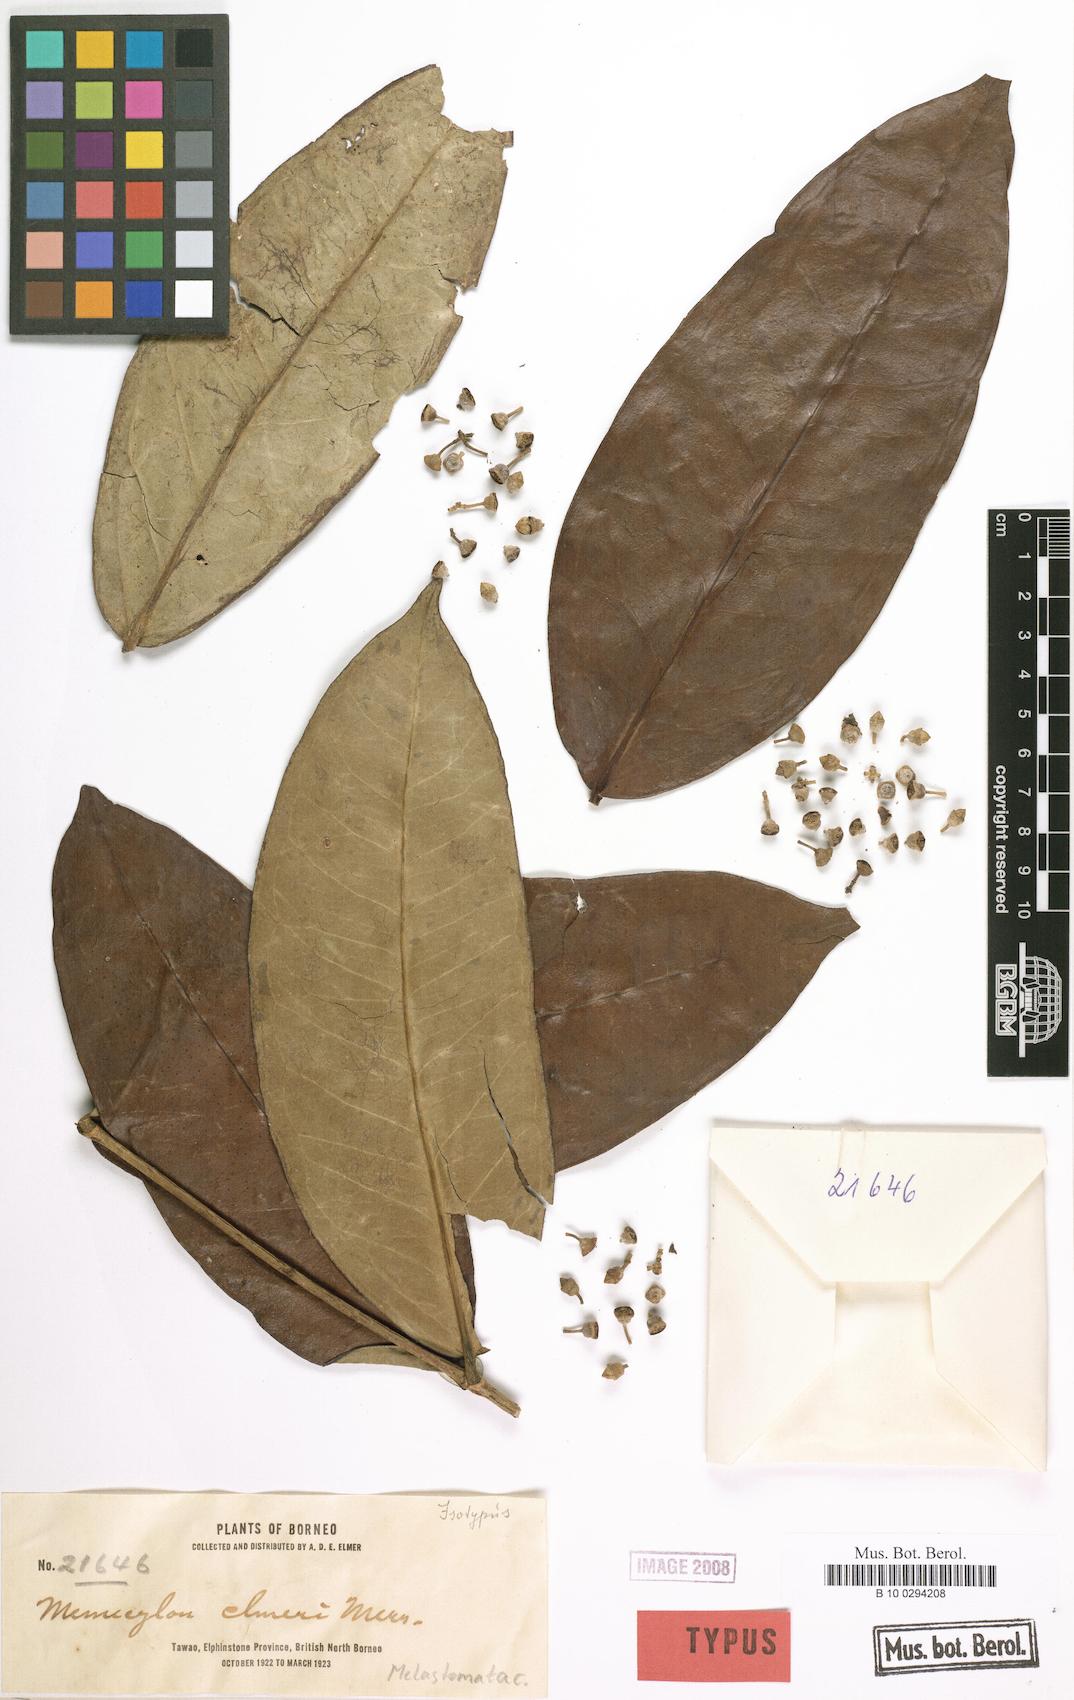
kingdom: Plantae
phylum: Tracheophyta
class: Magnoliopsida
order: Myrtales
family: Melastomataceae
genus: Memecylon
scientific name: Memecylon excelsum
